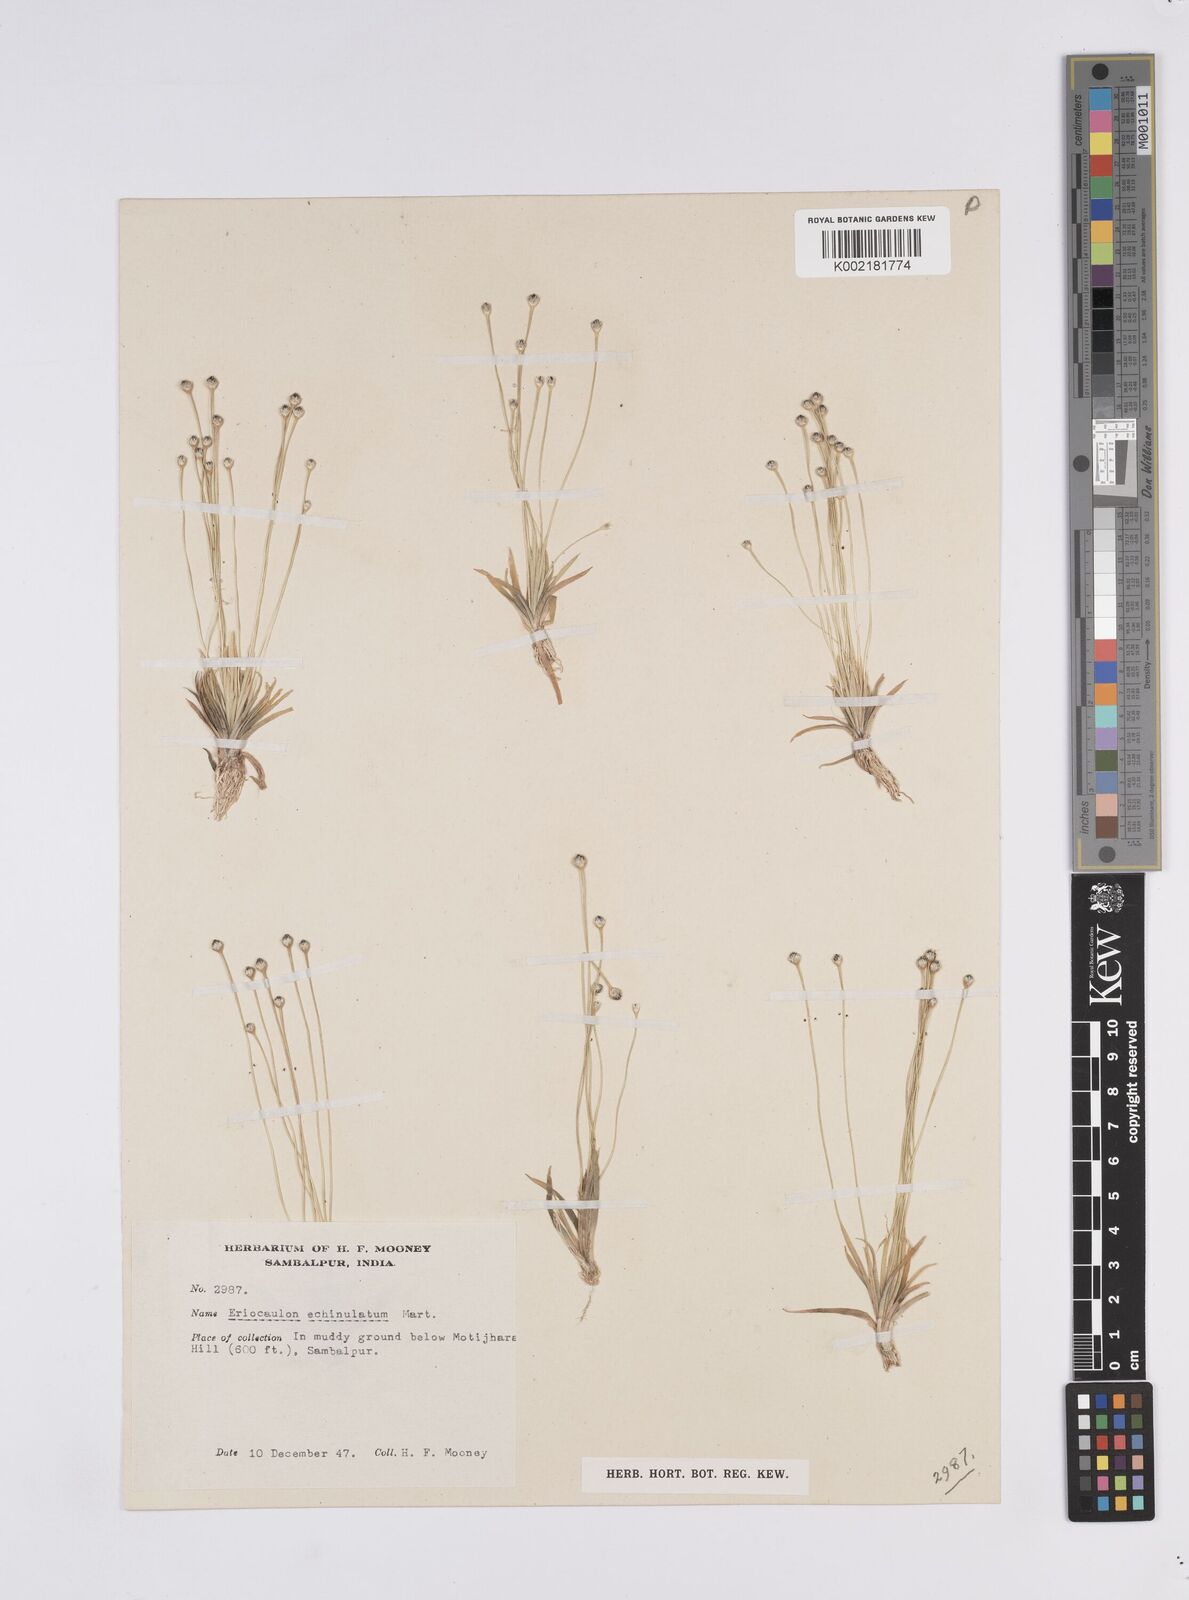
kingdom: Plantae
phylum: Tracheophyta
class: Liliopsida
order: Poales
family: Eriocaulaceae
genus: Eriocaulon
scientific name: Eriocaulon echinulatum
